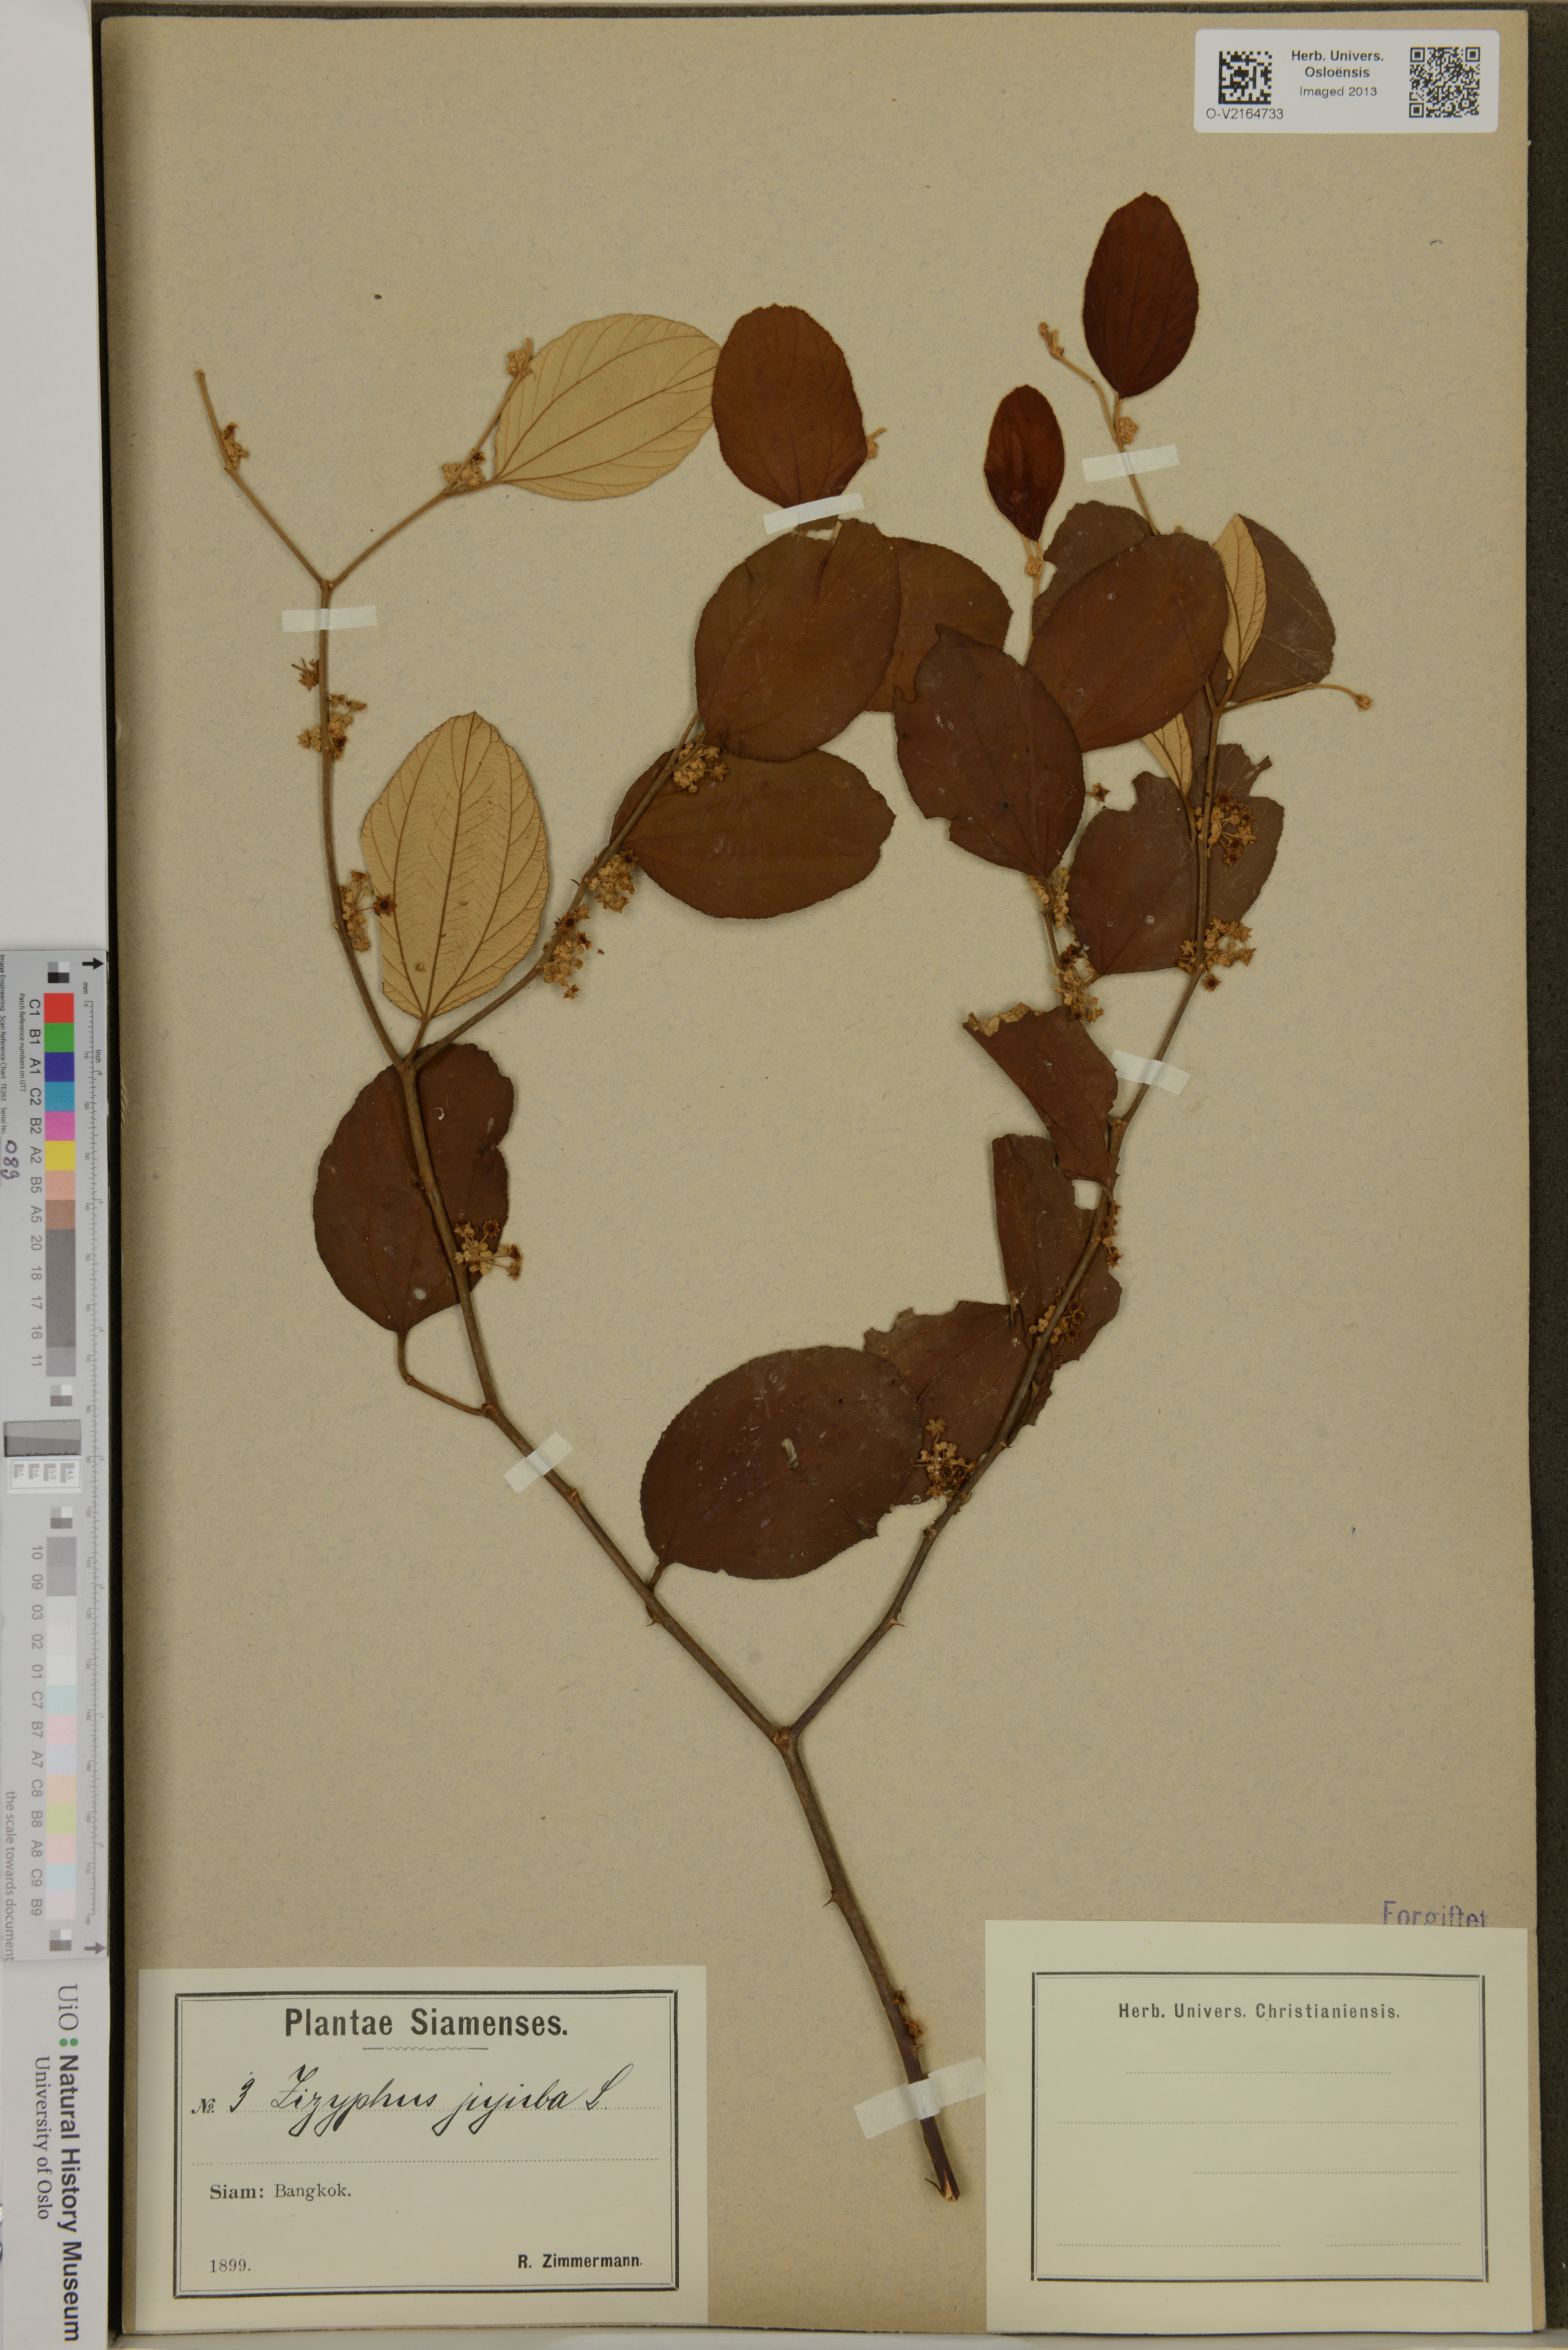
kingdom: Plantae
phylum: Tracheophyta
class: Magnoliopsida
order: Rosales
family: Rhamnaceae
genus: Ziziphus
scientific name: Ziziphus jujuba
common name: Jujube red date
